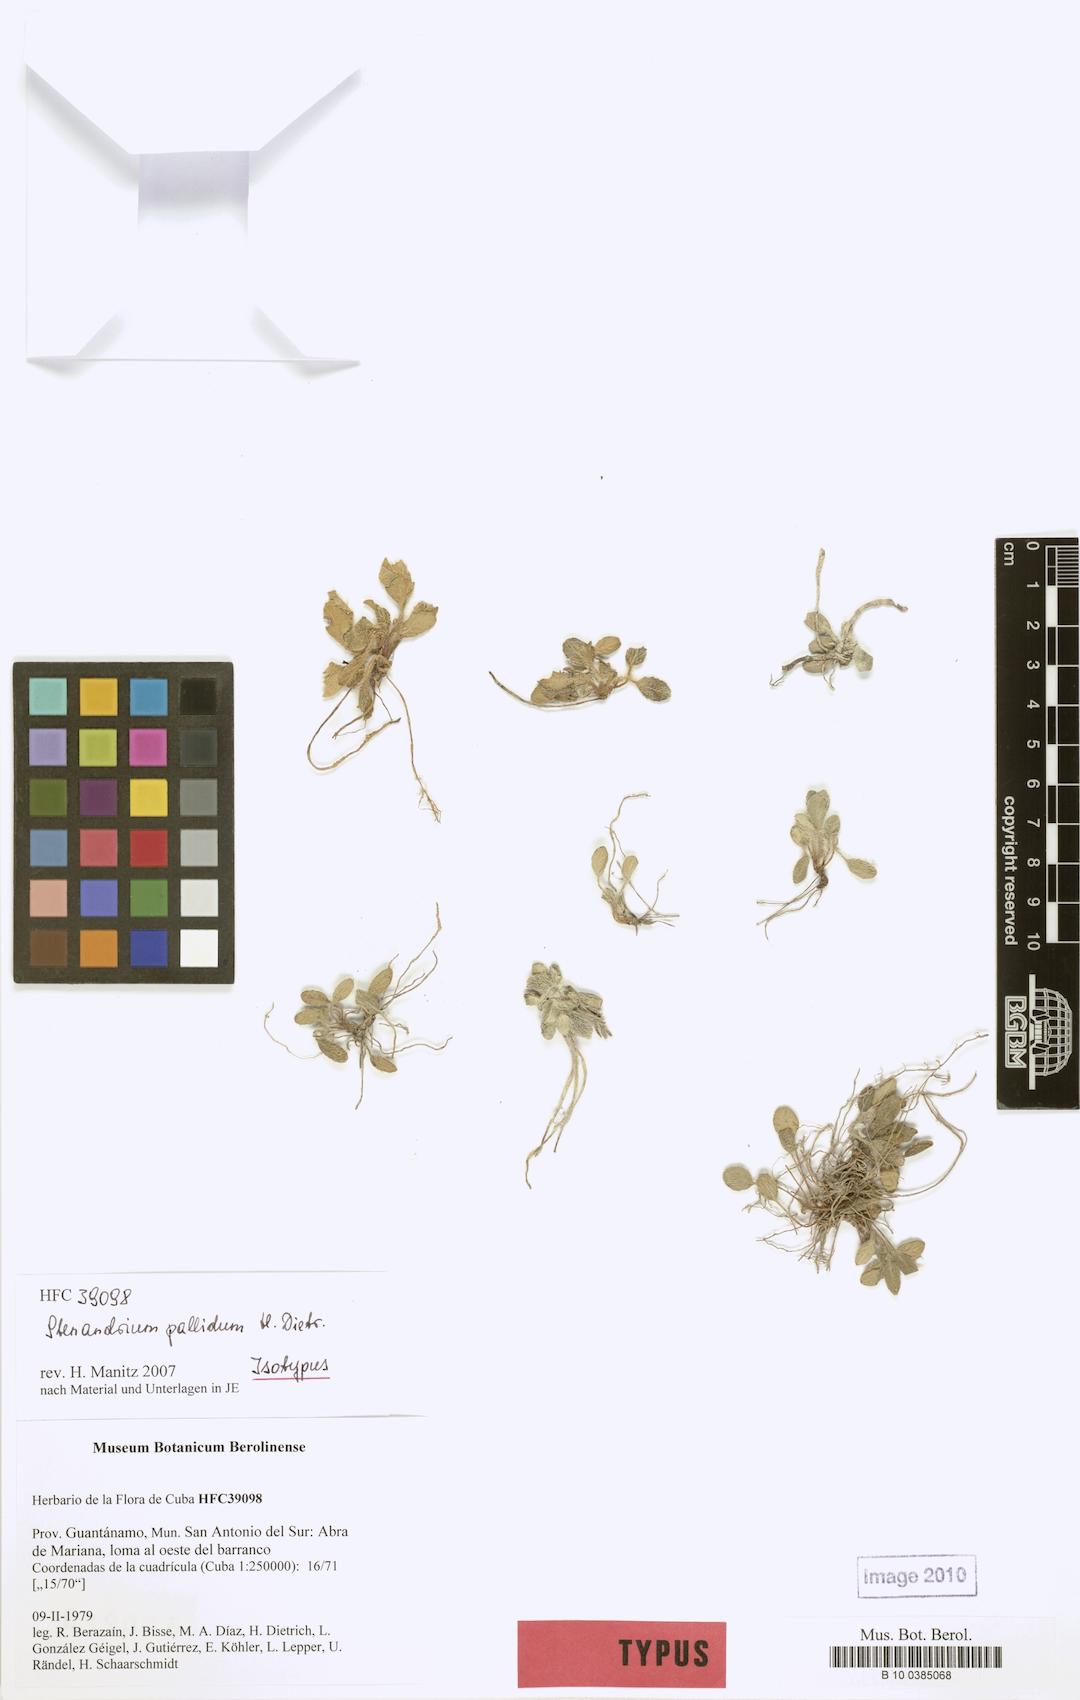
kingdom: Plantae
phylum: Tracheophyta
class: Magnoliopsida
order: Lamiales
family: Acanthaceae
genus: Stenandrium
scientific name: Stenandrium pallidum
